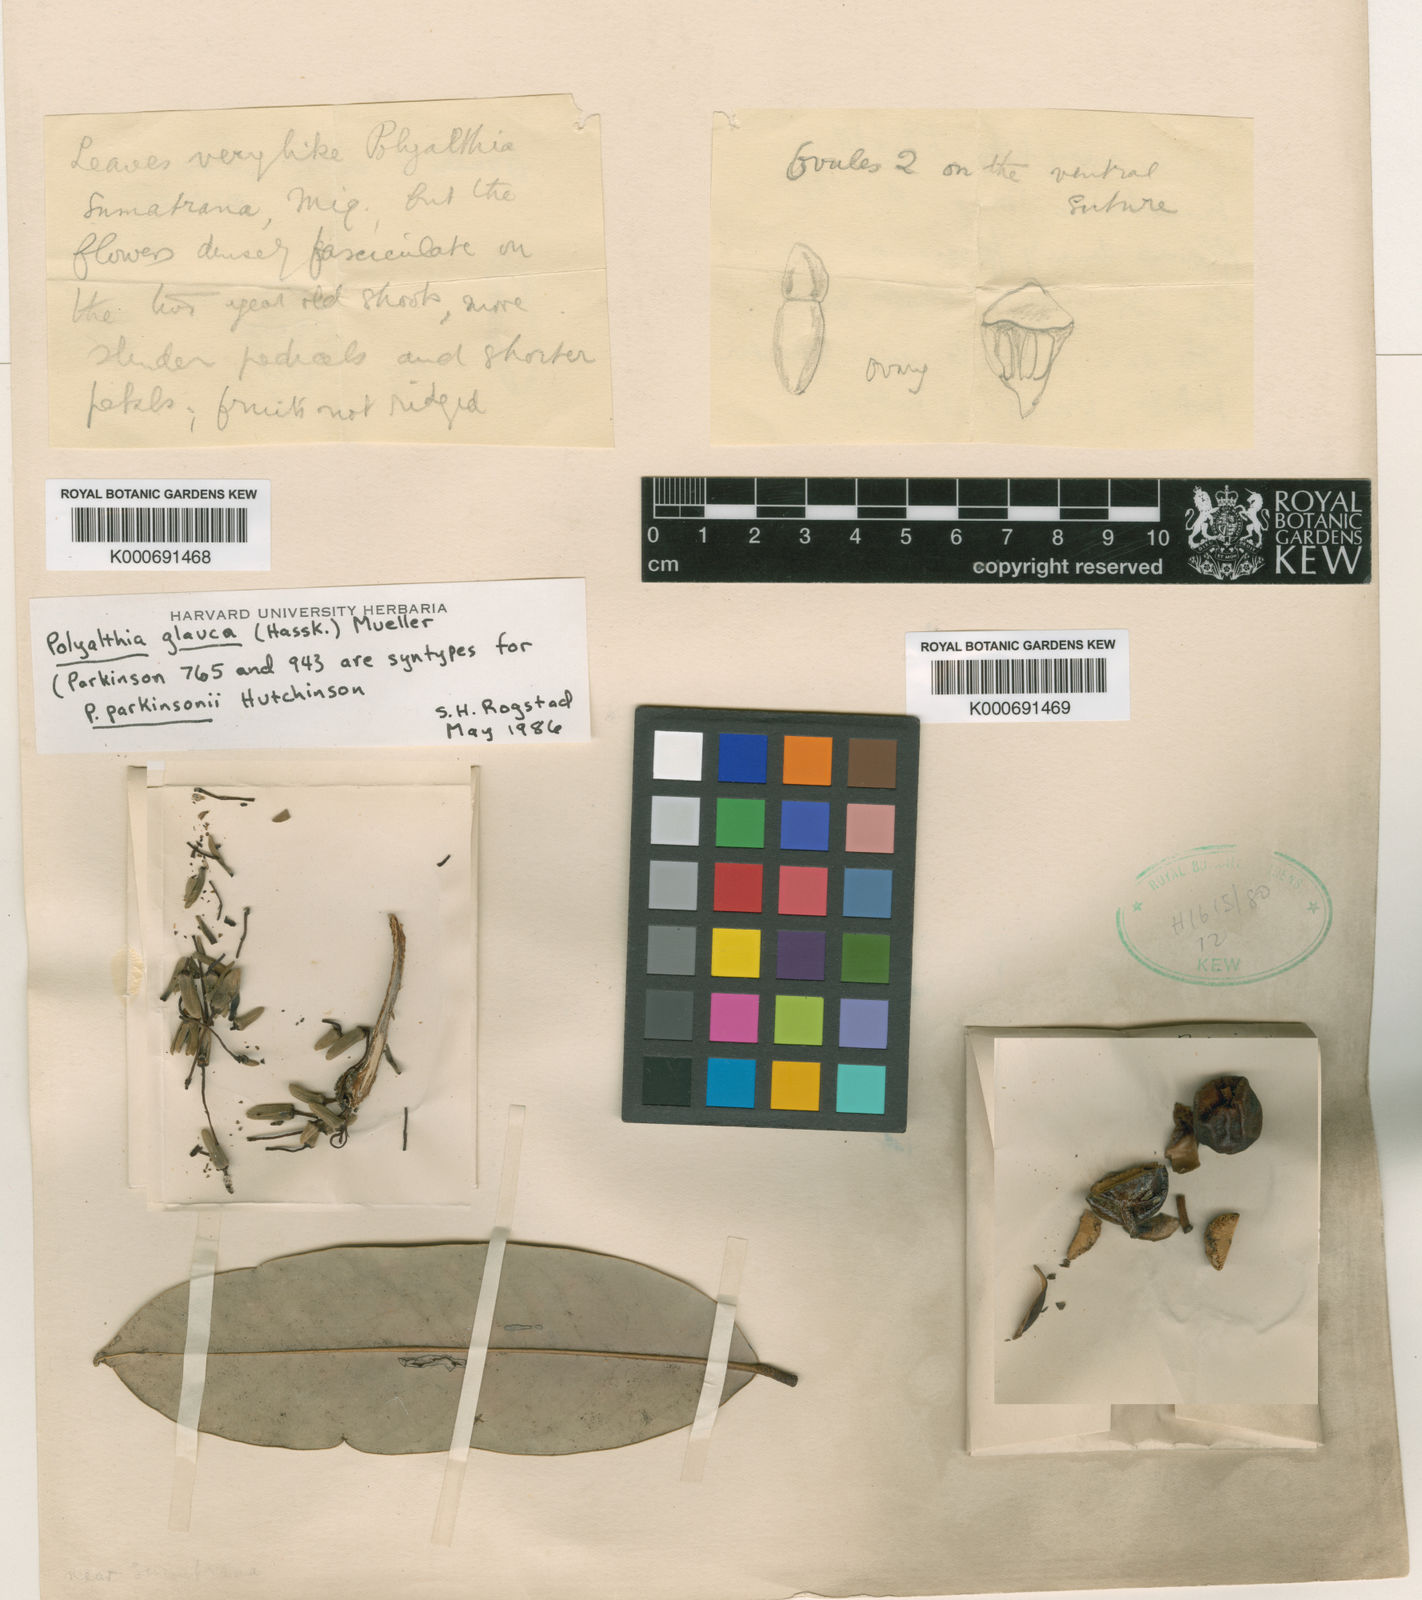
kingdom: Plantae
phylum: Tracheophyta
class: Magnoliopsida
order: Magnoliales
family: Annonaceae
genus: Maasia
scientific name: Maasia glauca
